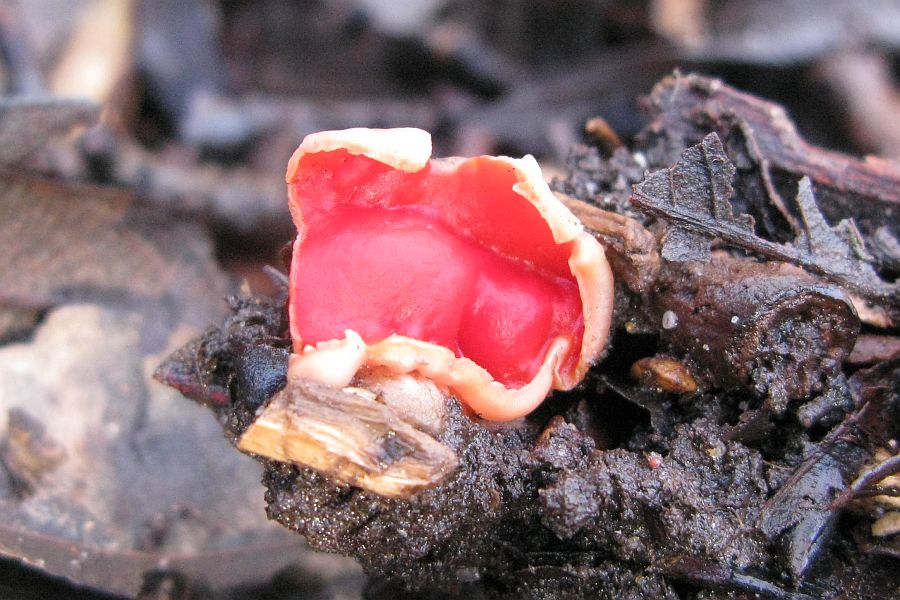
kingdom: Fungi
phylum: Ascomycota
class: Pezizomycetes
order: Pezizales
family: Sarcoscyphaceae
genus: Sarcoscypha
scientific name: Sarcoscypha austriaca
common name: krølhåret pragtbæger
